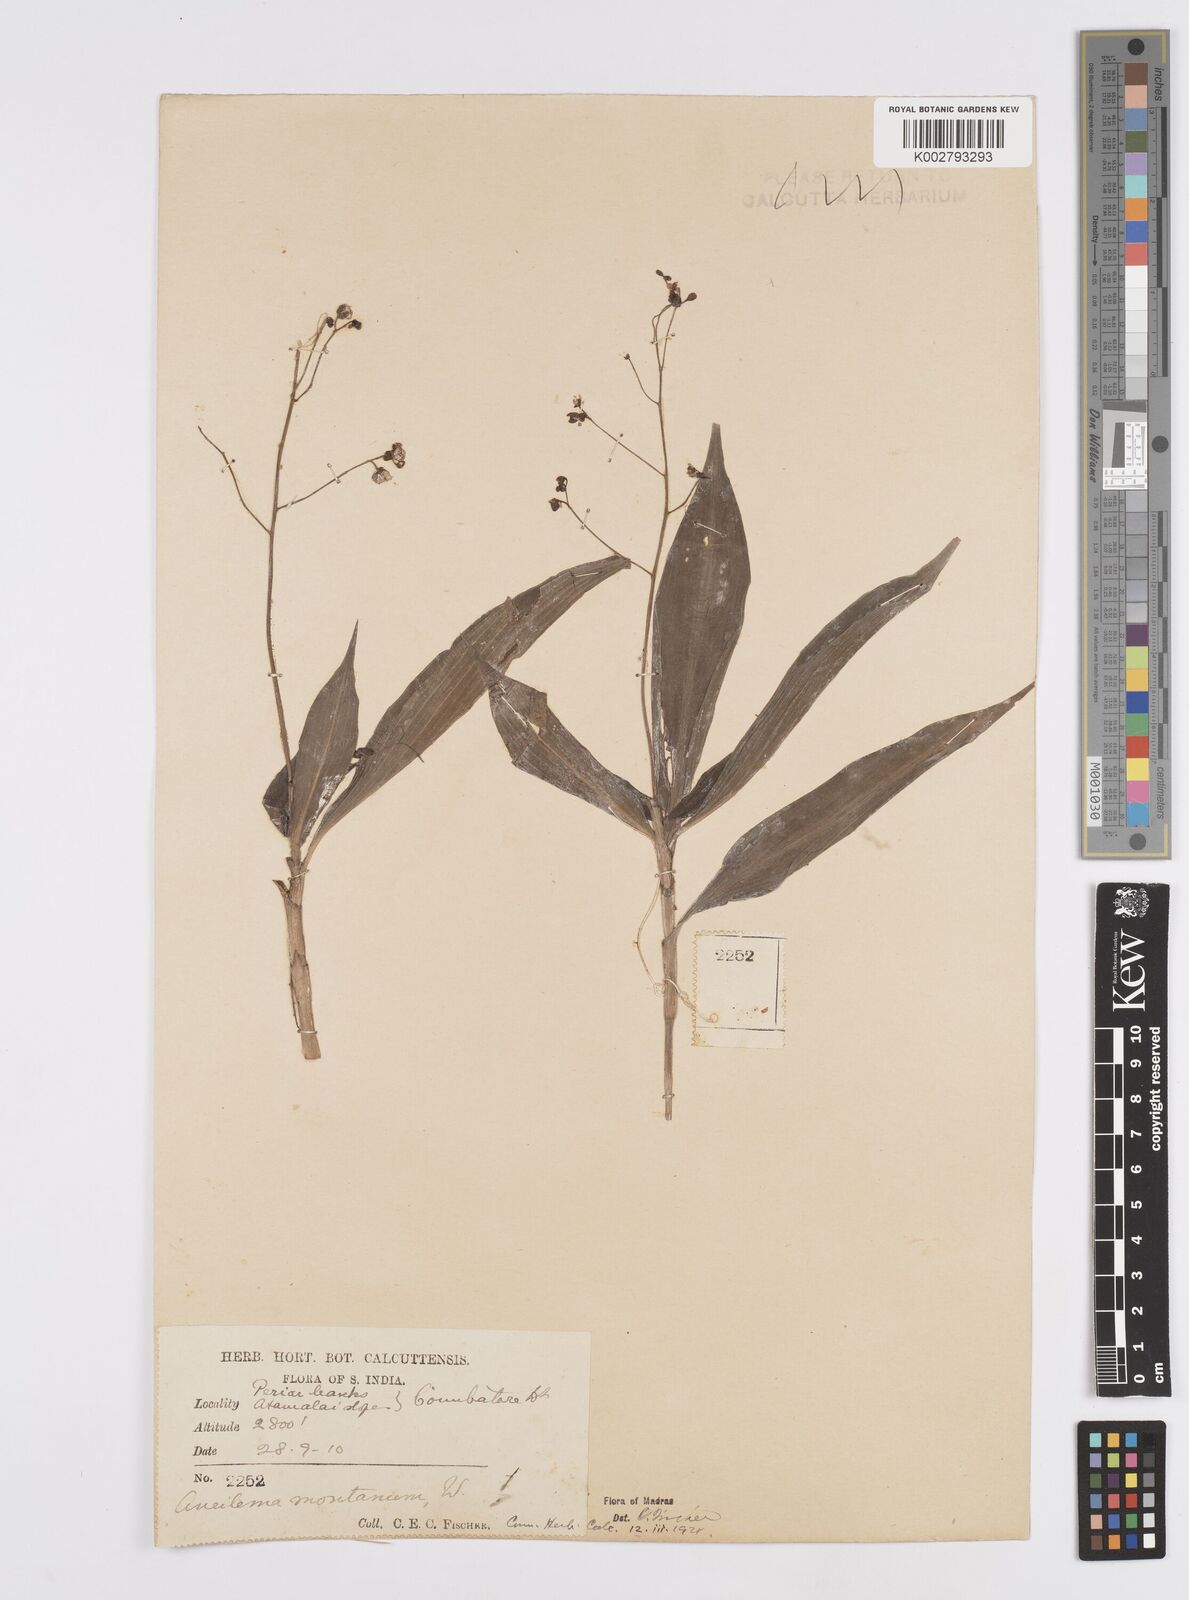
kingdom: Plantae
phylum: Tracheophyta
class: Liliopsida
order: Commelinales
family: Commelinaceae
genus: Murdannia
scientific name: Murdannia
